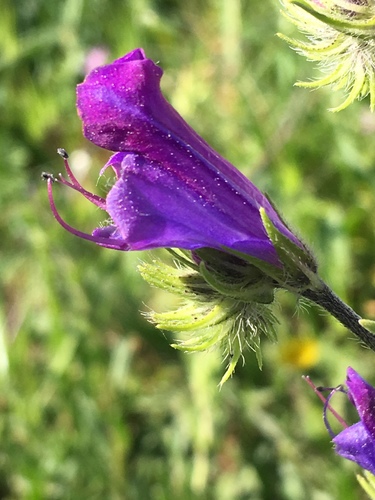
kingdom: Plantae
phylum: Tracheophyta
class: Magnoliopsida
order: Boraginales
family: Boraginaceae
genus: Echium
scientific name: Echium plantagineum
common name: Purple viper's-bugloss
